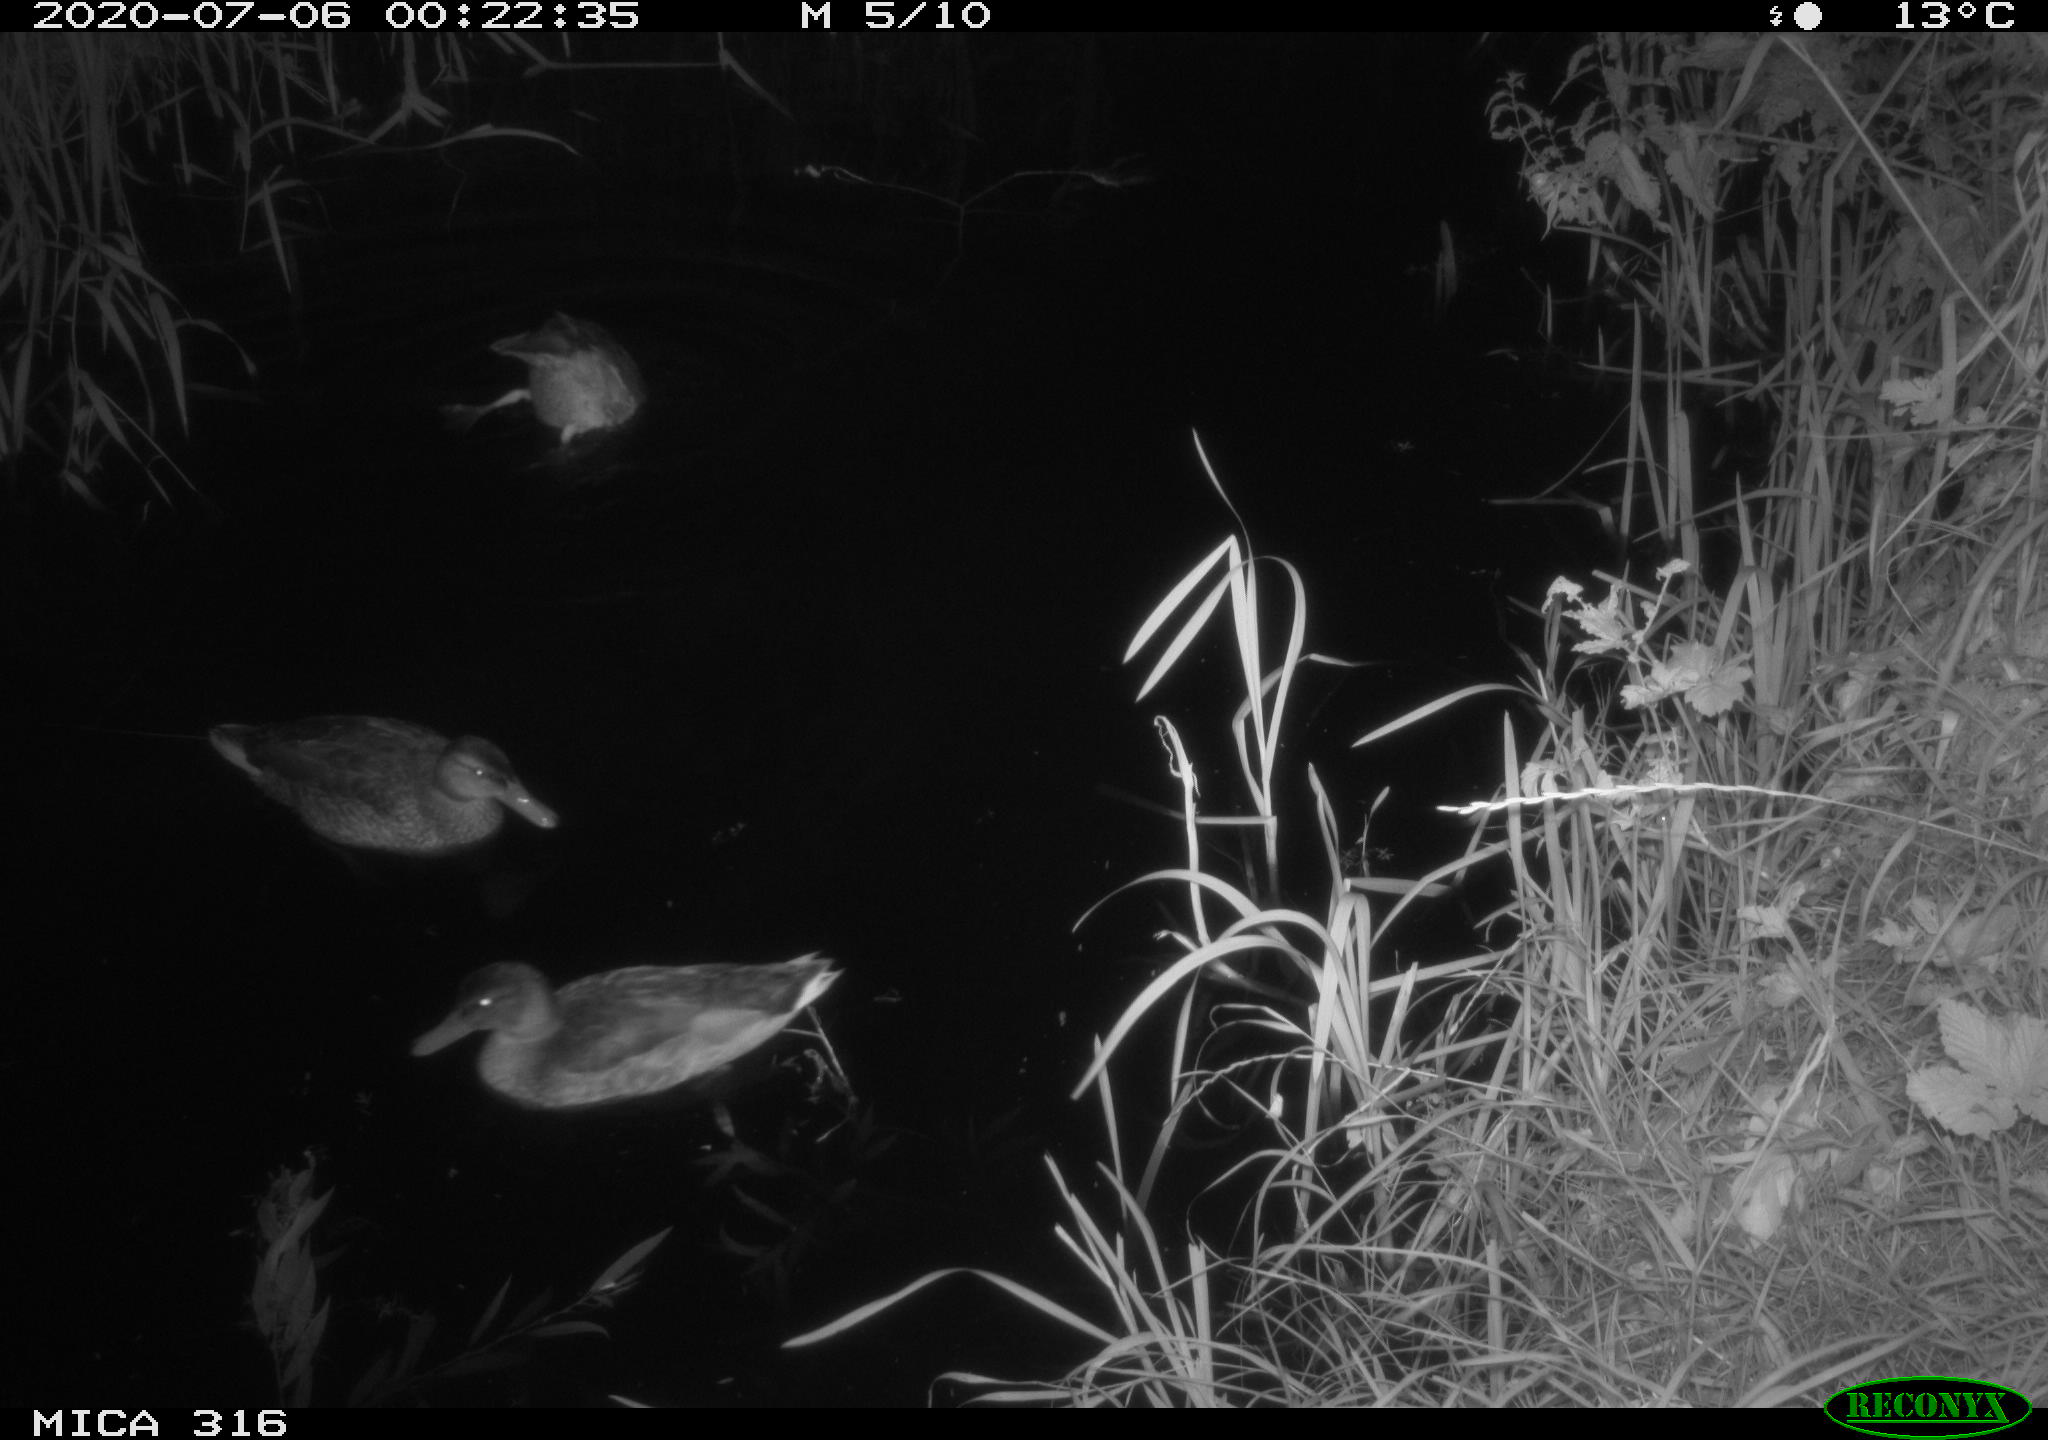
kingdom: Animalia
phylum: Chordata
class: Aves
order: Anseriformes
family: Anatidae
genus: Anas
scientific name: Anas platyrhynchos
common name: Mallard
